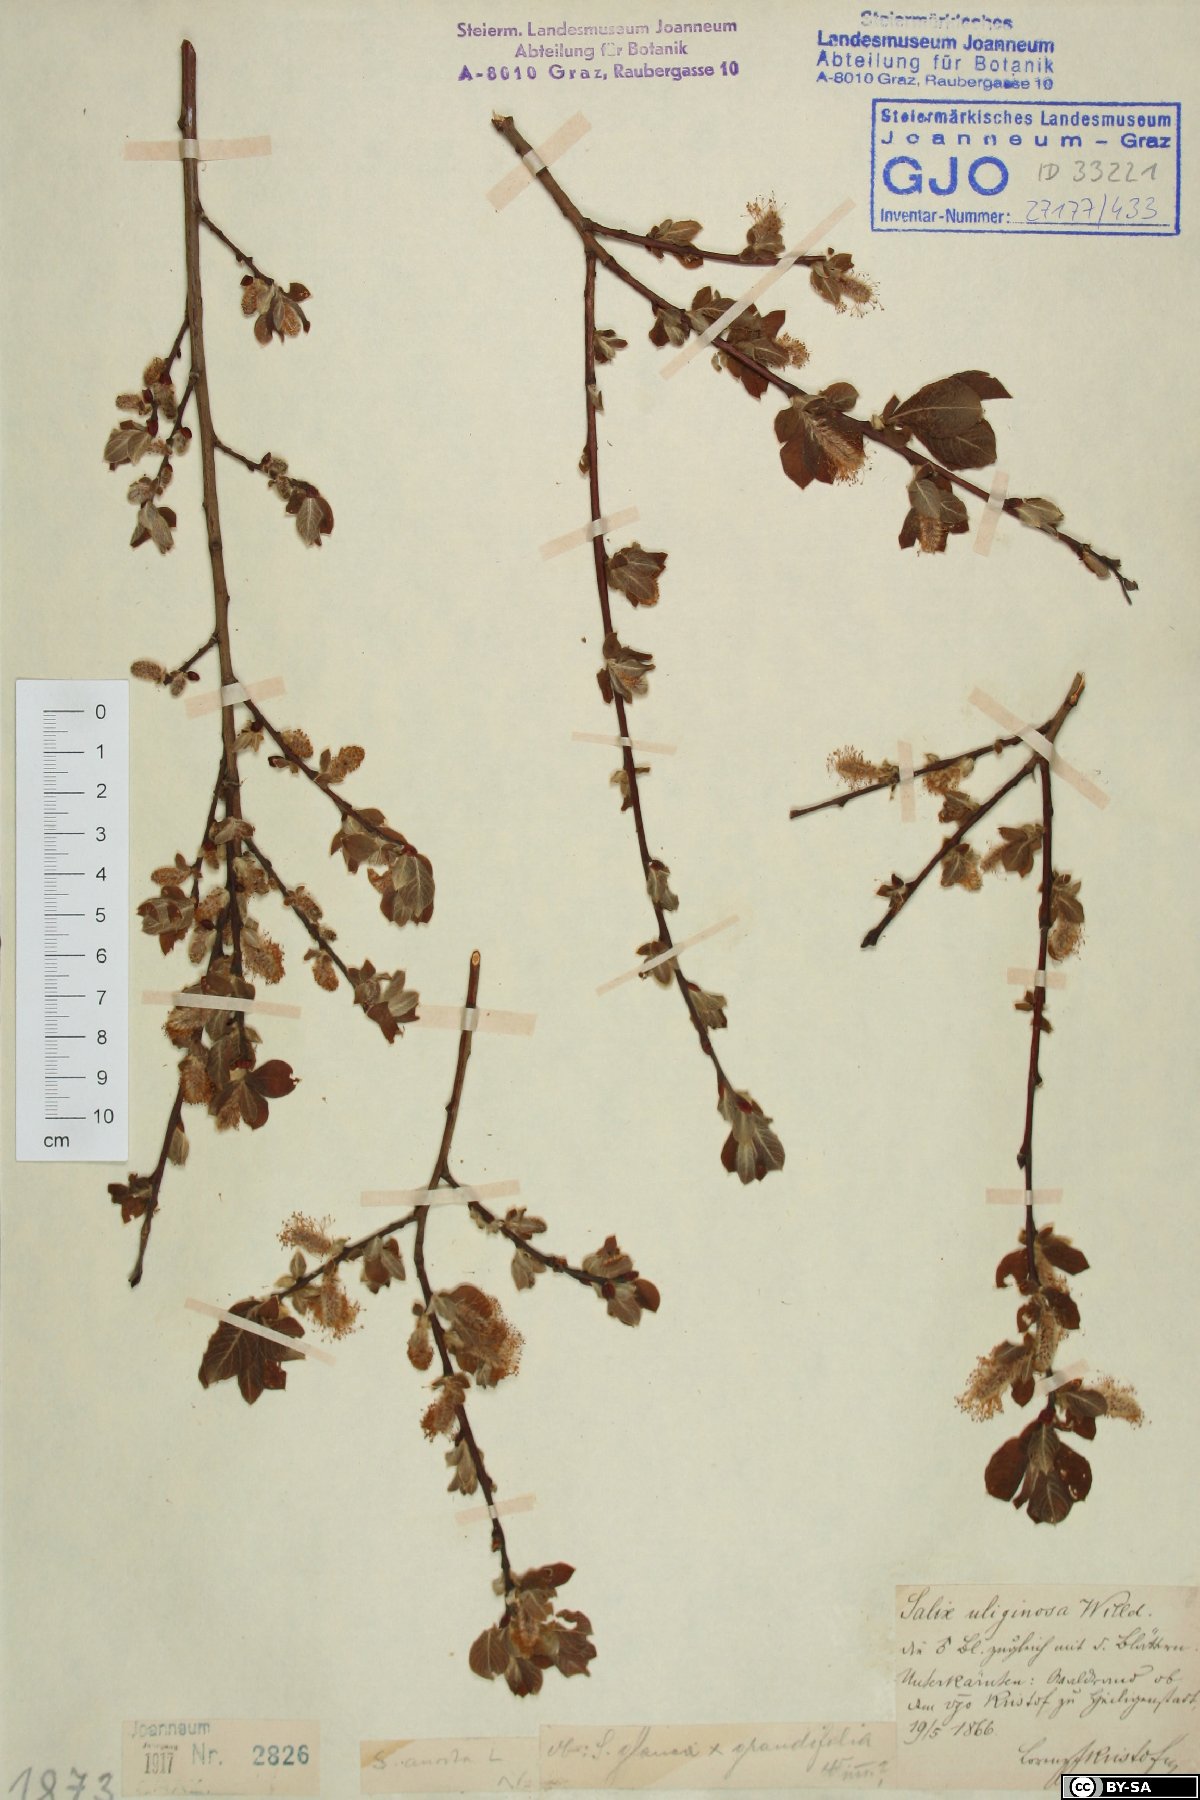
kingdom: Plantae
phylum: Tracheophyta
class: Magnoliopsida
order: Malpighiales
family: Salicaceae
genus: Salix
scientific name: Salix aurita
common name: Eared willow
